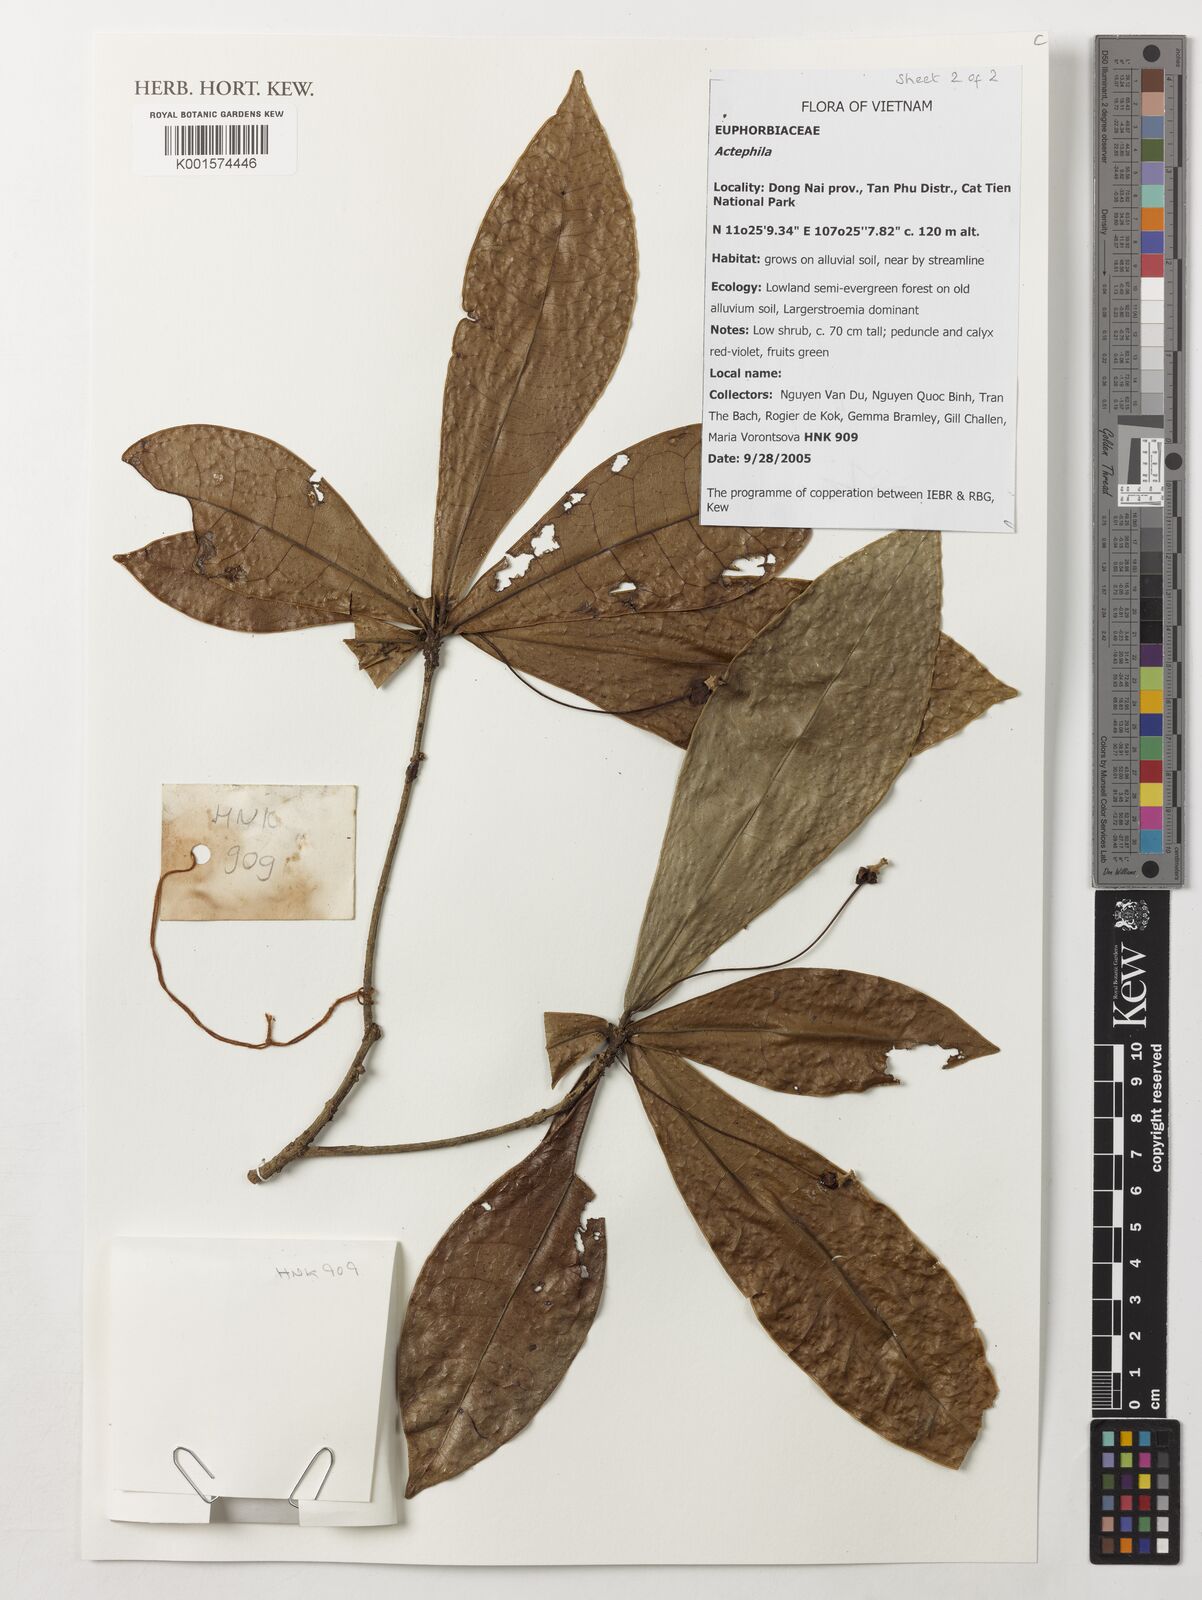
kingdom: Plantae
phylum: Tracheophyta
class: Magnoliopsida
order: Malpighiales
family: Phyllanthaceae
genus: Actephila
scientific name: Actephila
